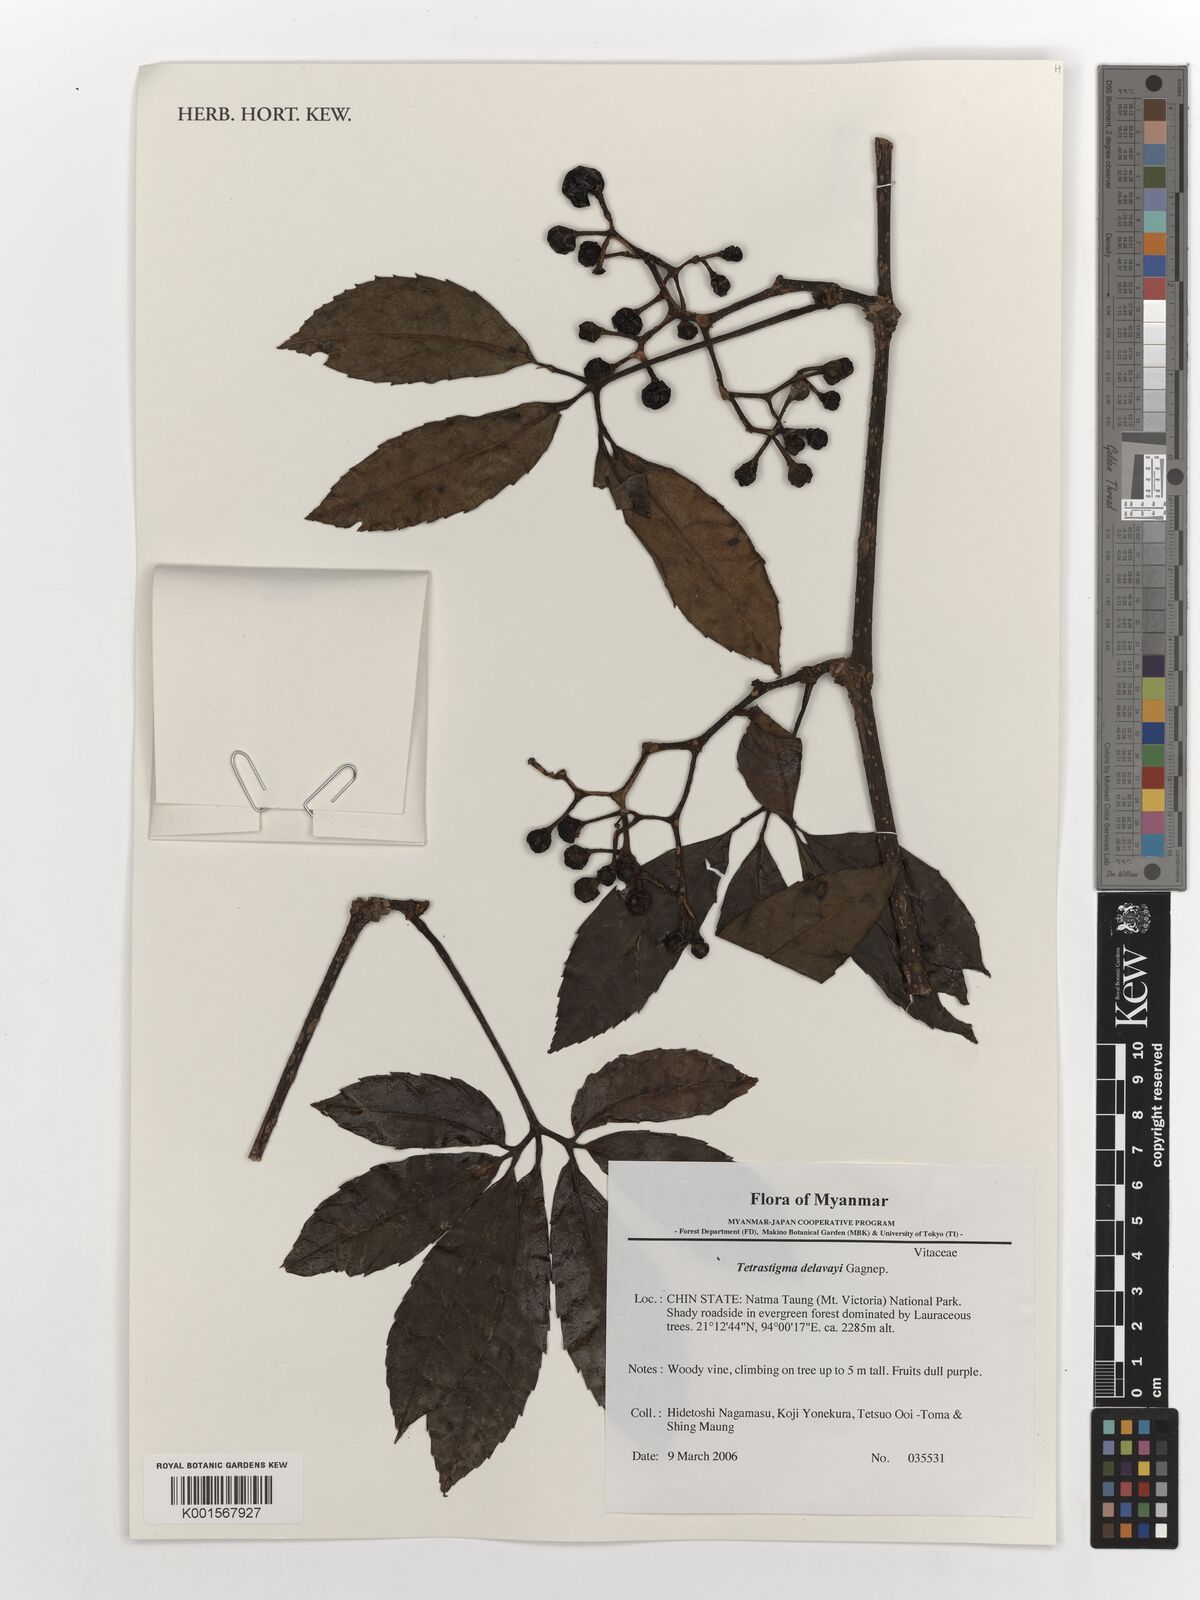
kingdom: Plantae
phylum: Tracheophyta
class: Magnoliopsida
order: Vitales
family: Vitaceae
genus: Tetrastigma
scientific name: Tetrastigma delavayi
